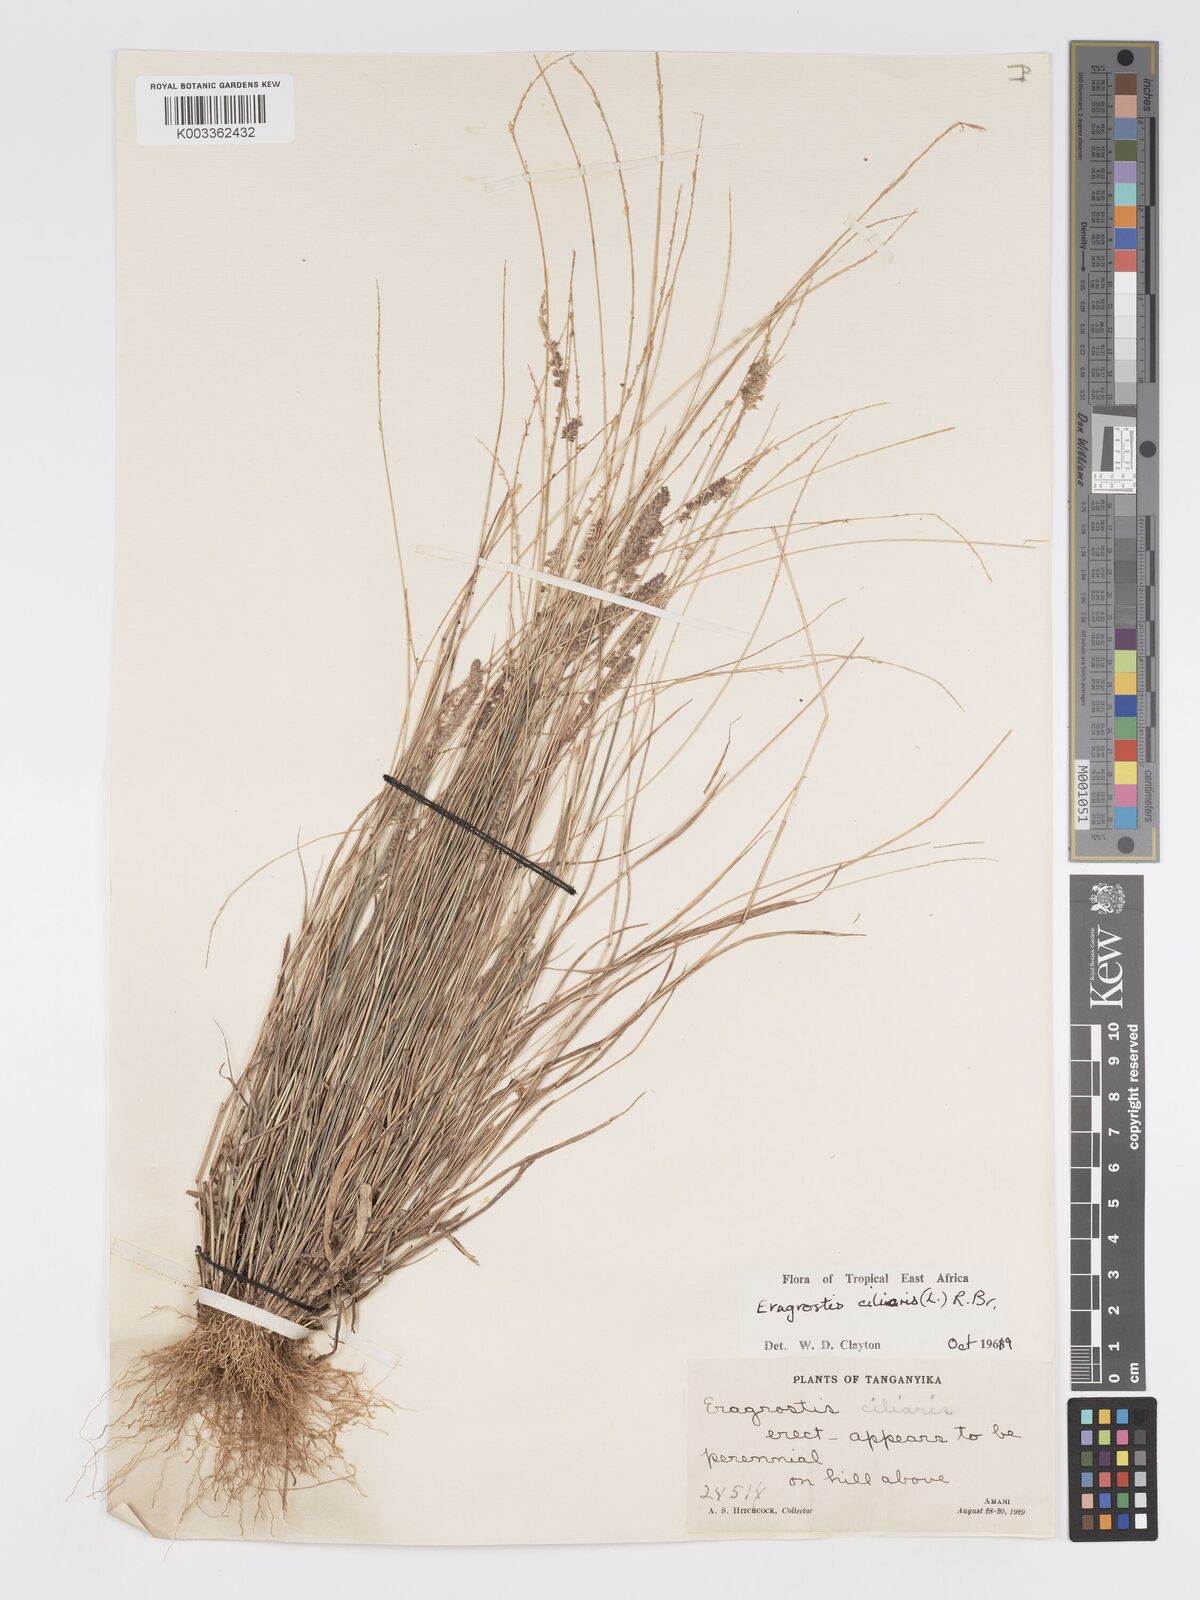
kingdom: Plantae
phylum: Tracheophyta
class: Liliopsida
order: Poales
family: Poaceae
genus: Eragrostis
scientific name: Eragrostis ciliaris
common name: Gophertail lovegrass
